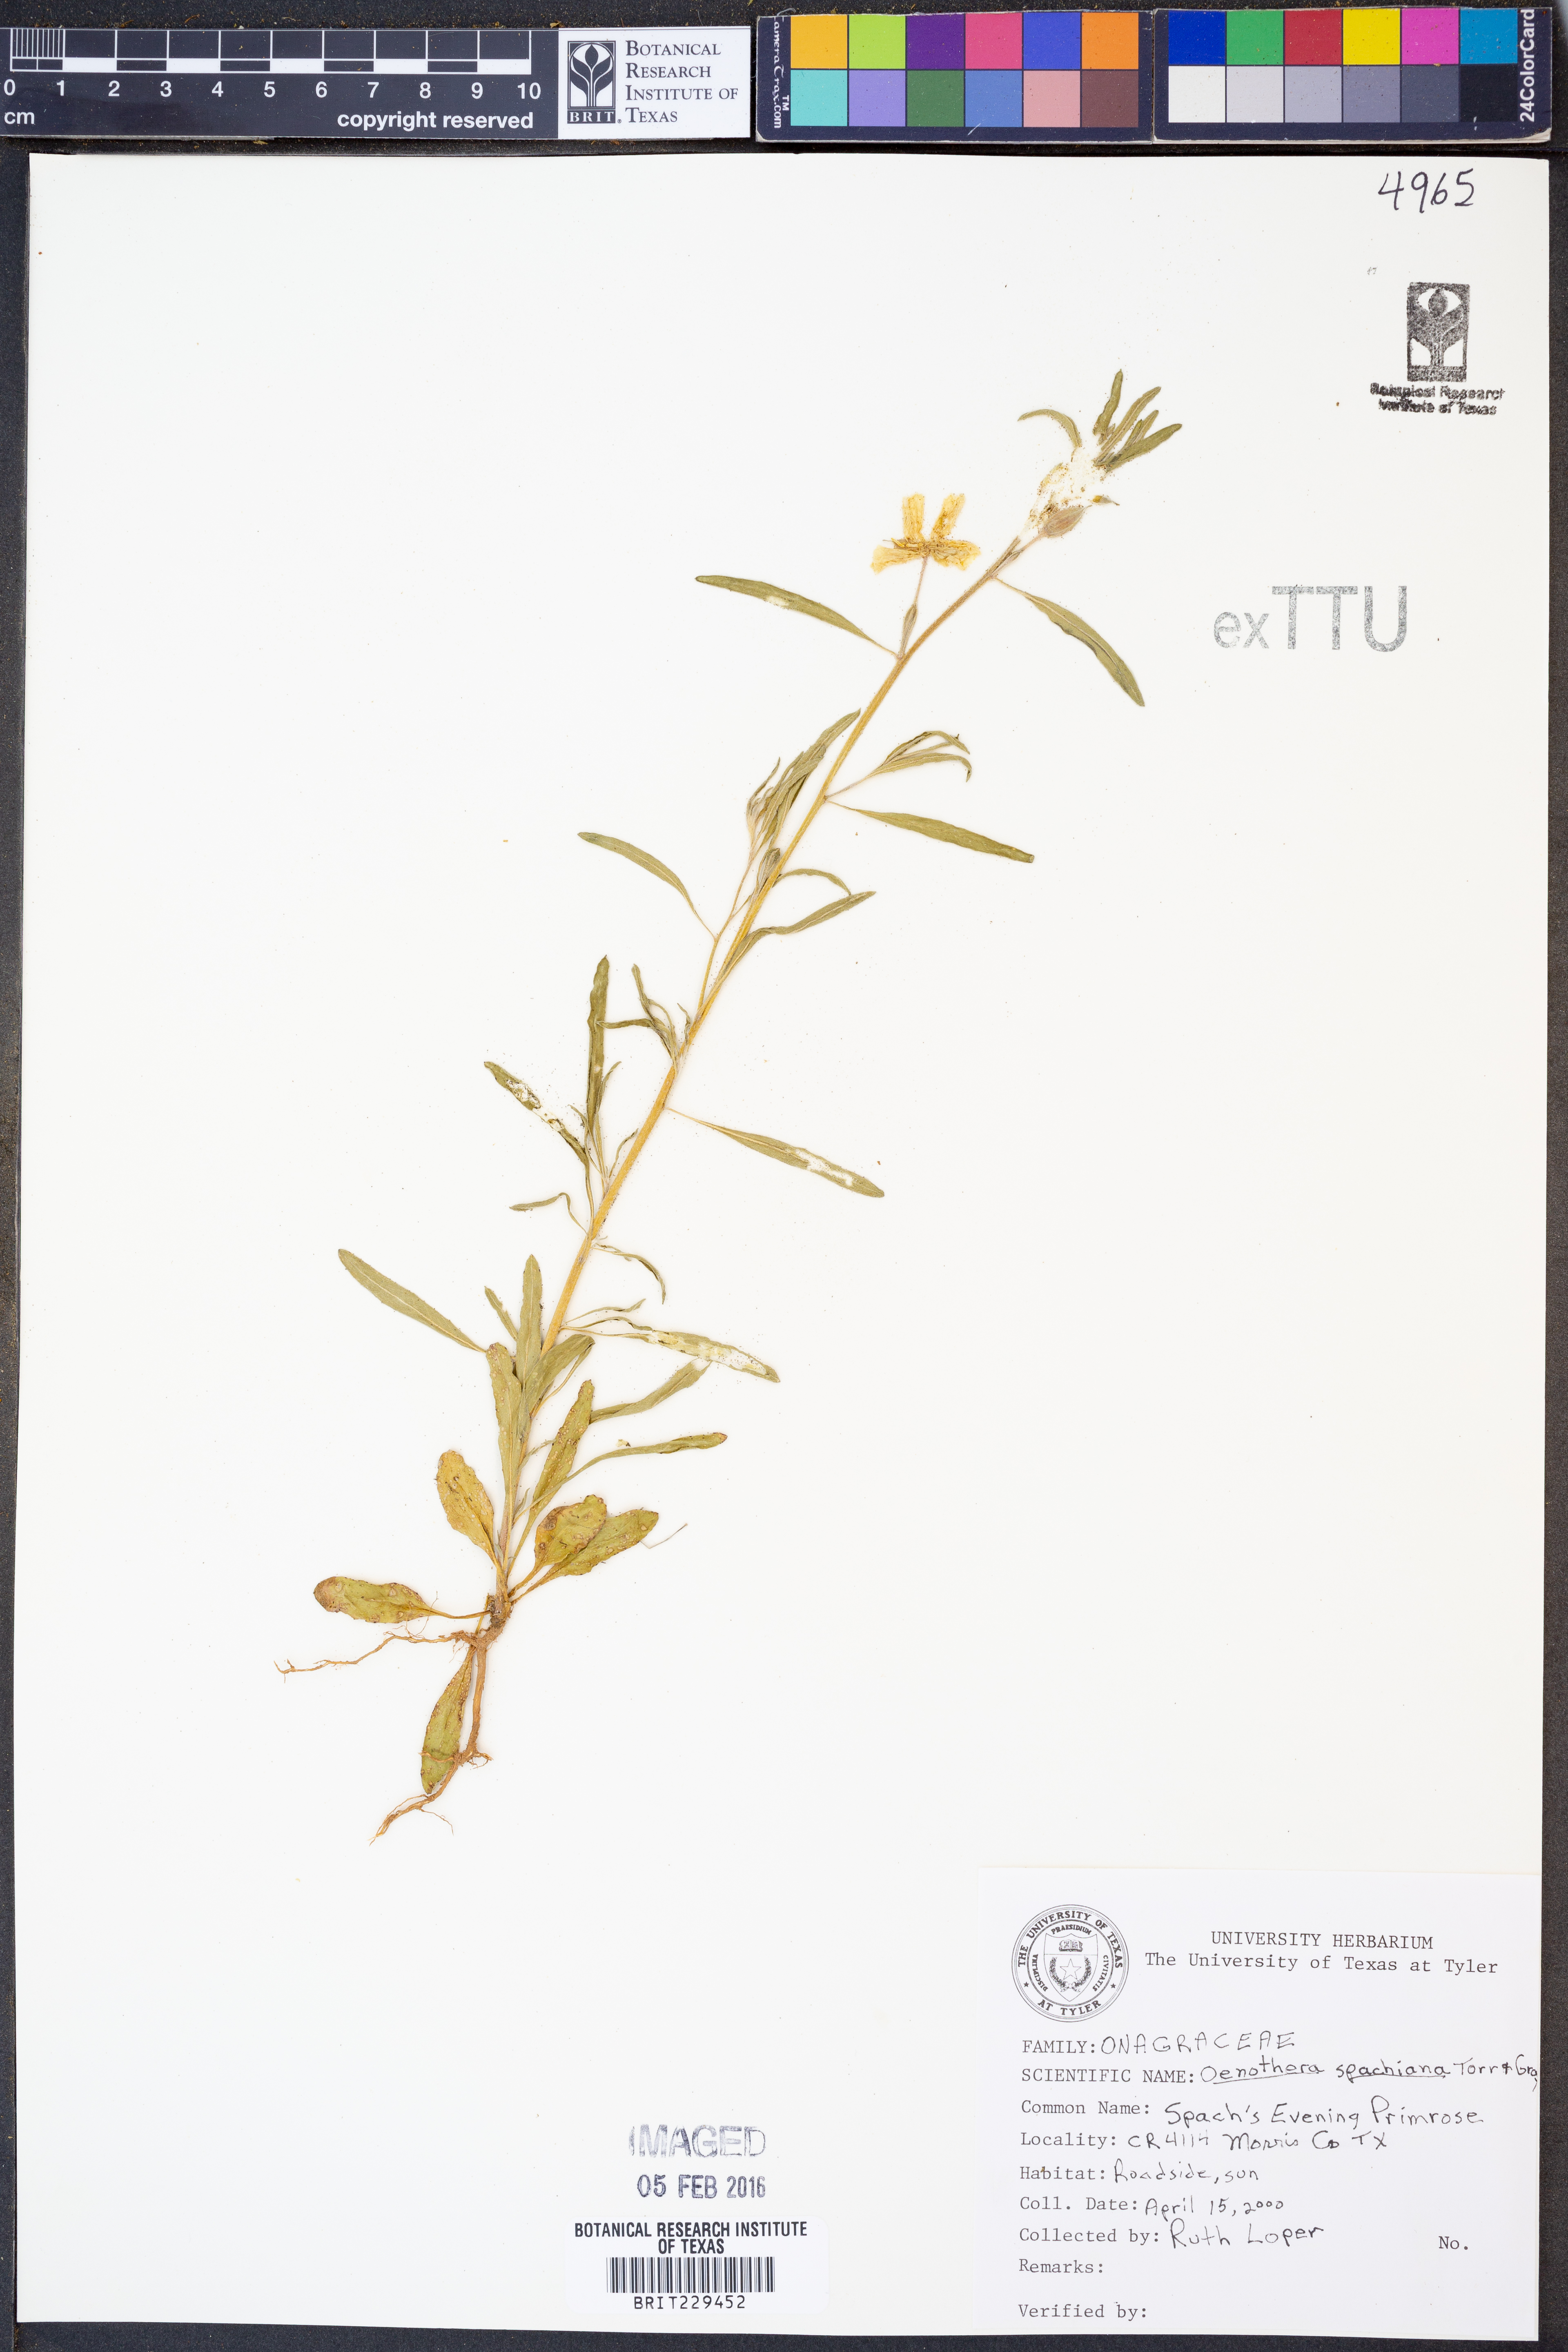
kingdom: Plantae
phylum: Tracheophyta
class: Magnoliopsida
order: Myrtales
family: Onagraceae
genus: Oenothera
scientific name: Oenothera spachiana
